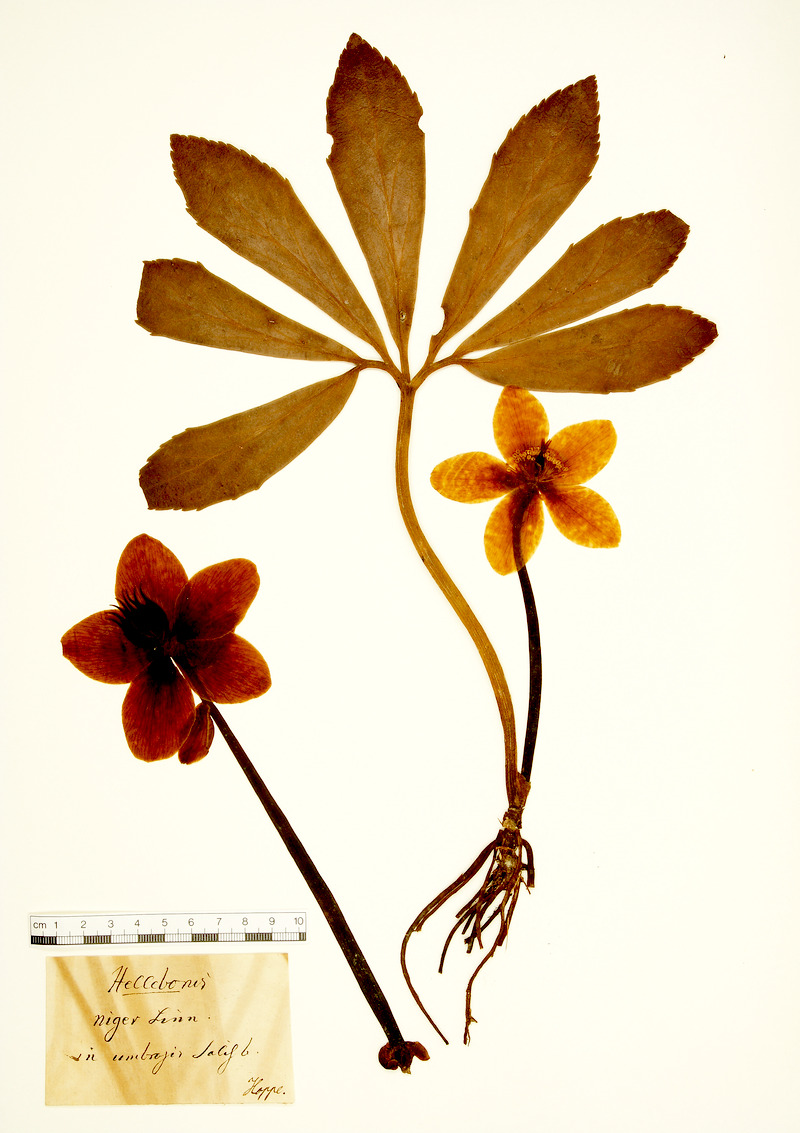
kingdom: Plantae
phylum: Tracheophyta
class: Magnoliopsida
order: Ranunculales
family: Ranunculaceae
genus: Helleborus
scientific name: Helleborus niger
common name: Black hellebore
